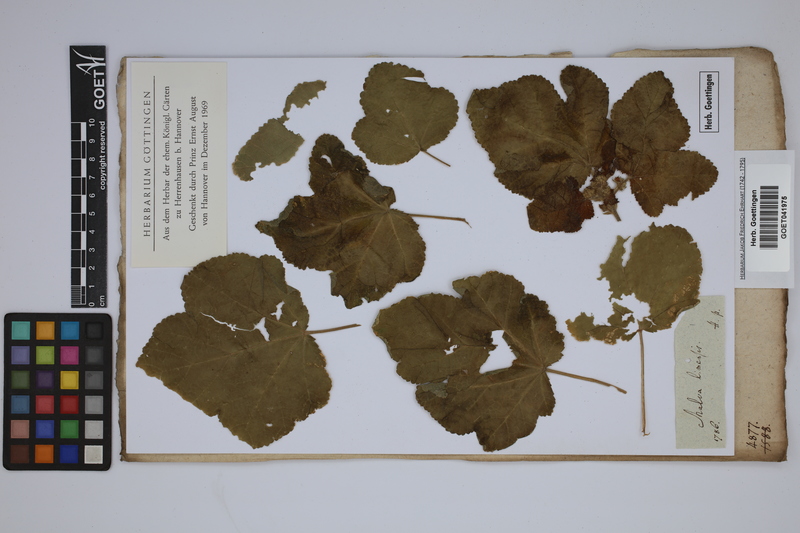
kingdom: Plantae
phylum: Tracheophyta
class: Magnoliopsida
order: Malvales
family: Malvaceae
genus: Fuertesimalva
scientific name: Fuertesimalva limensis
